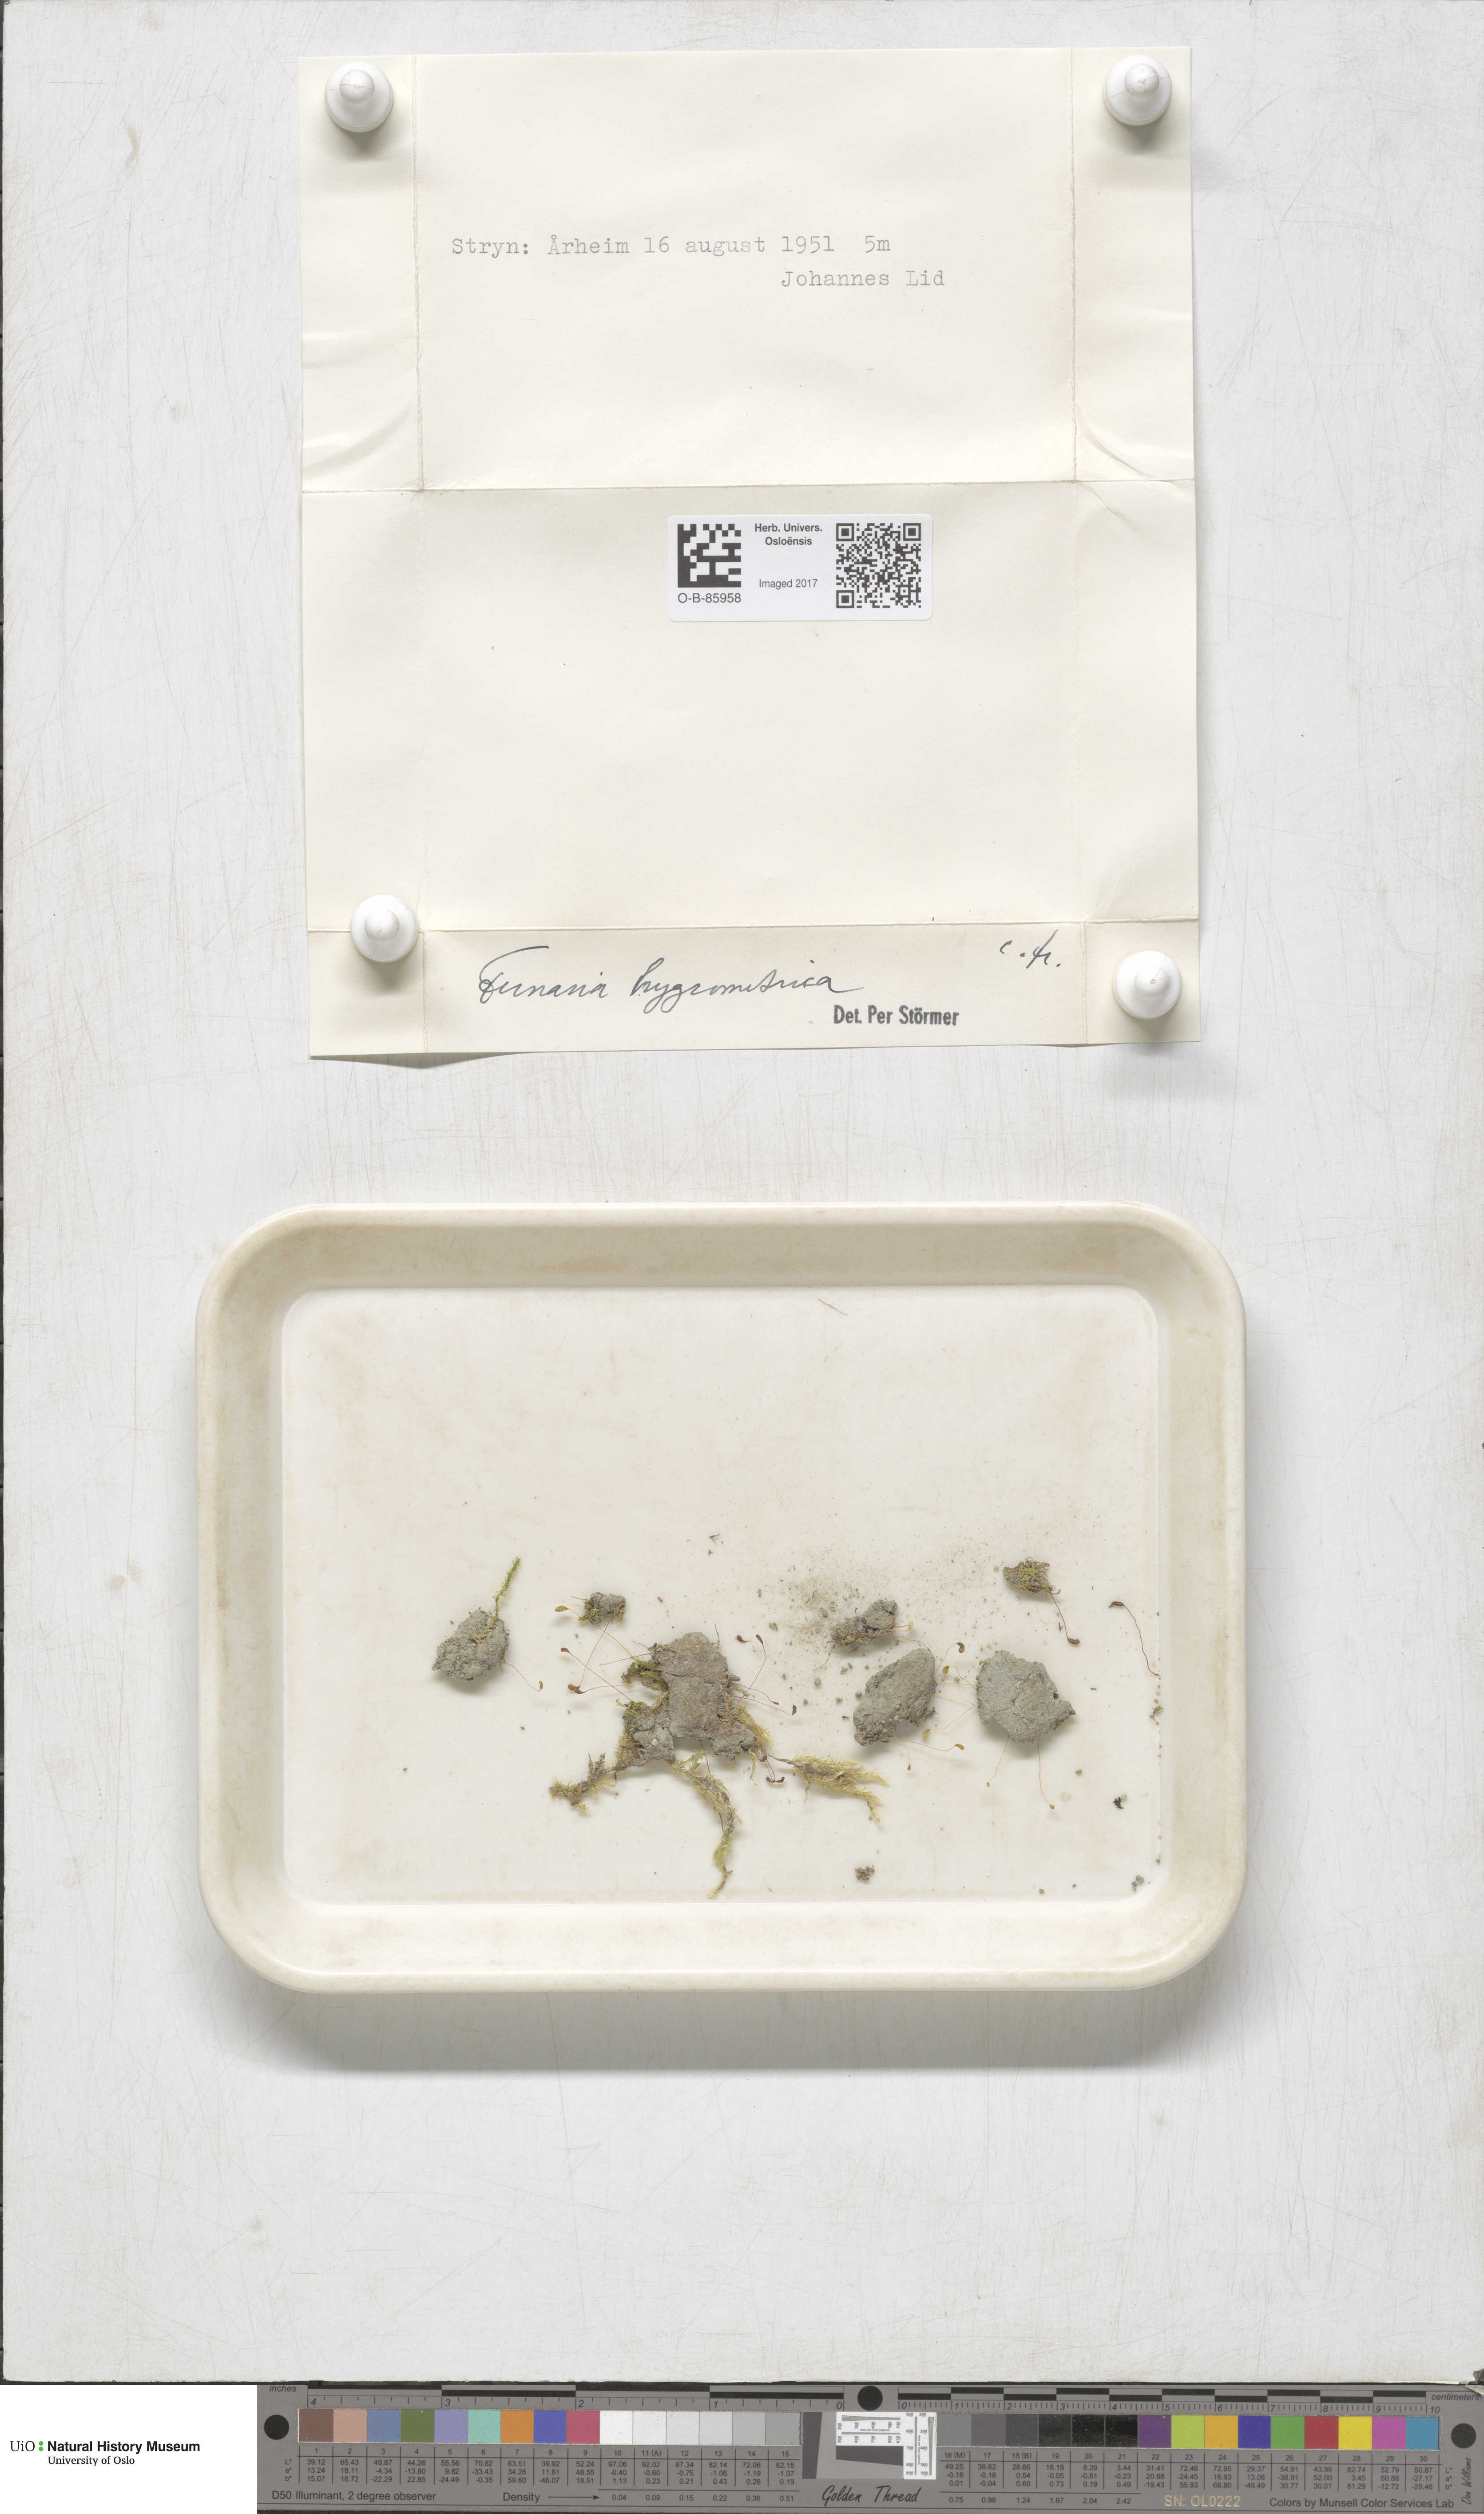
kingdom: Plantae
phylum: Bryophyta
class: Bryopsida
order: Funariales
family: Funariaceae
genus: Funaria
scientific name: Funaria hygrometrica
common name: Common cord moss
